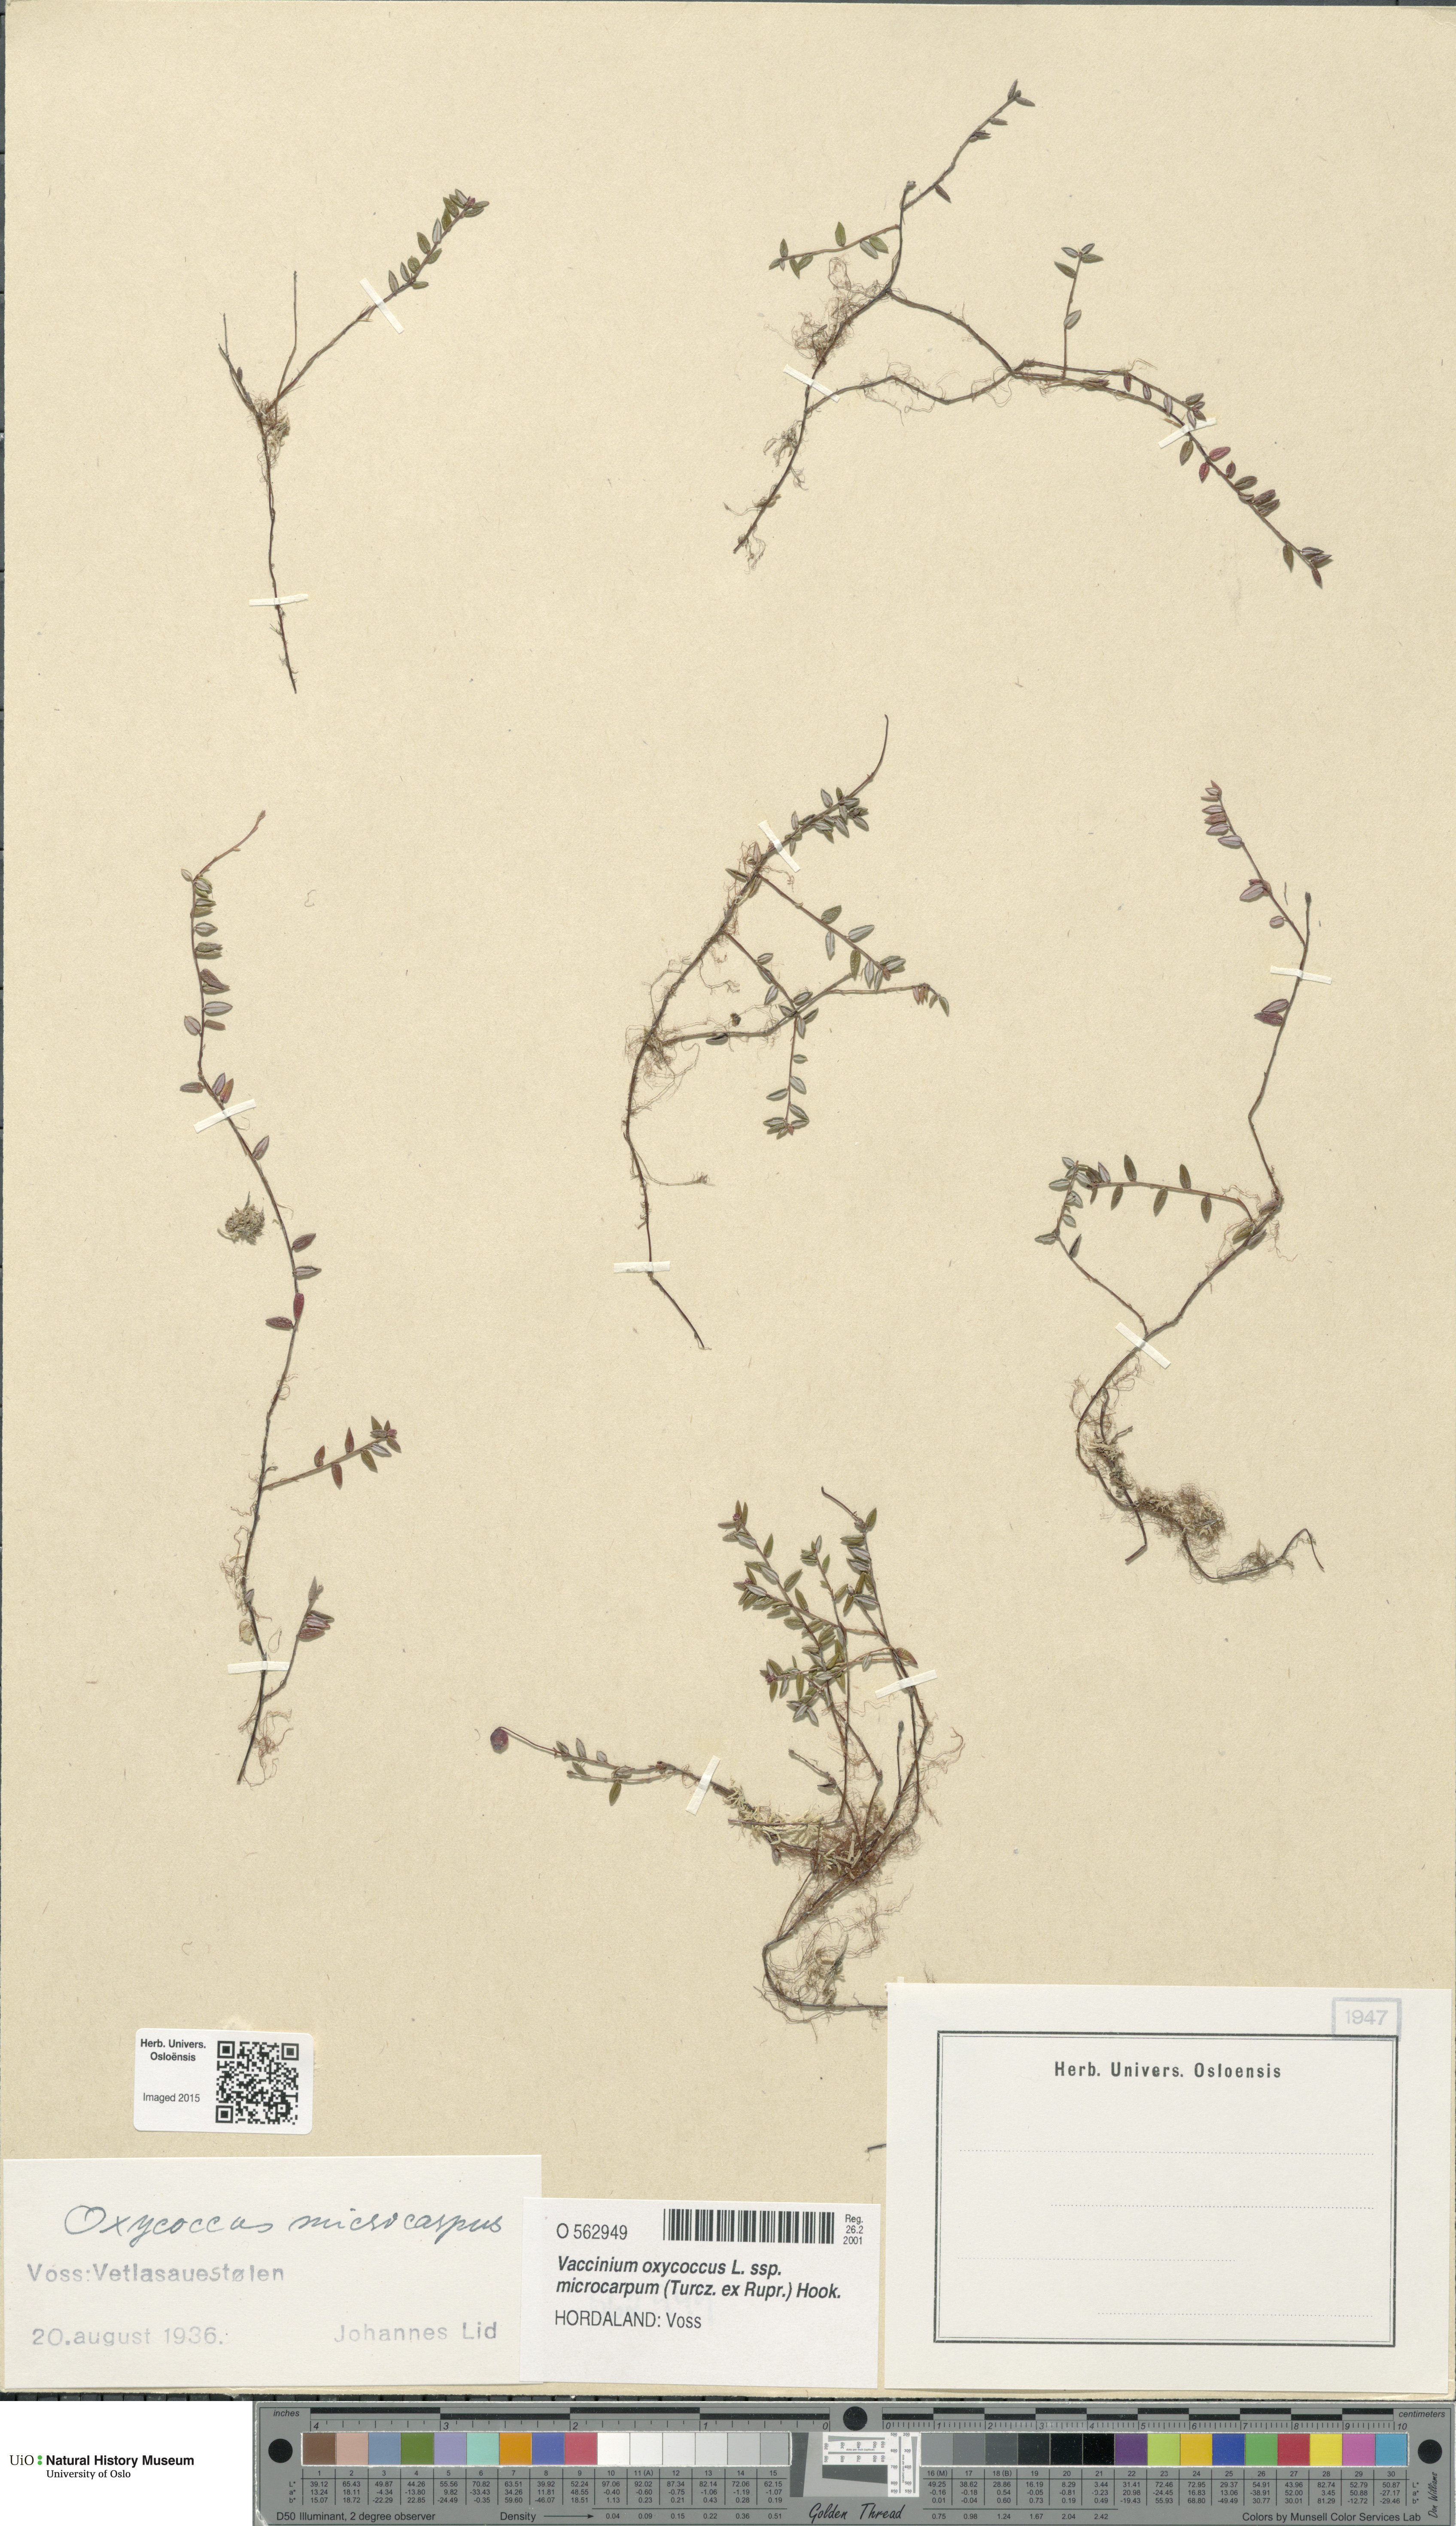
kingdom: Plantae
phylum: Tracheophyta
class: Magnoliopsida
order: Ericales
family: Ericaceae
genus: Vaccinium
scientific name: Vaccinium microcarpum
